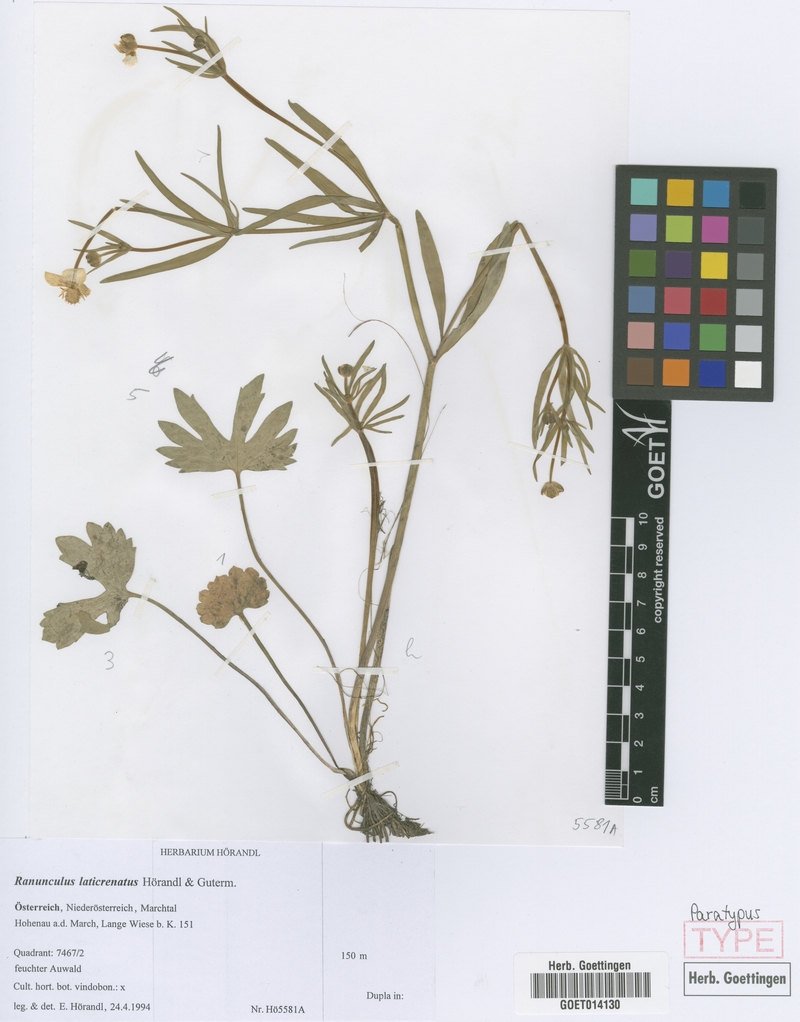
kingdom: Plantae
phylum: Tracheophyta
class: Magnoliopsida
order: Ranunculales
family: Ranunculaceae
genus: Ranunculus
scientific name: Ranunculus laticrenatus
